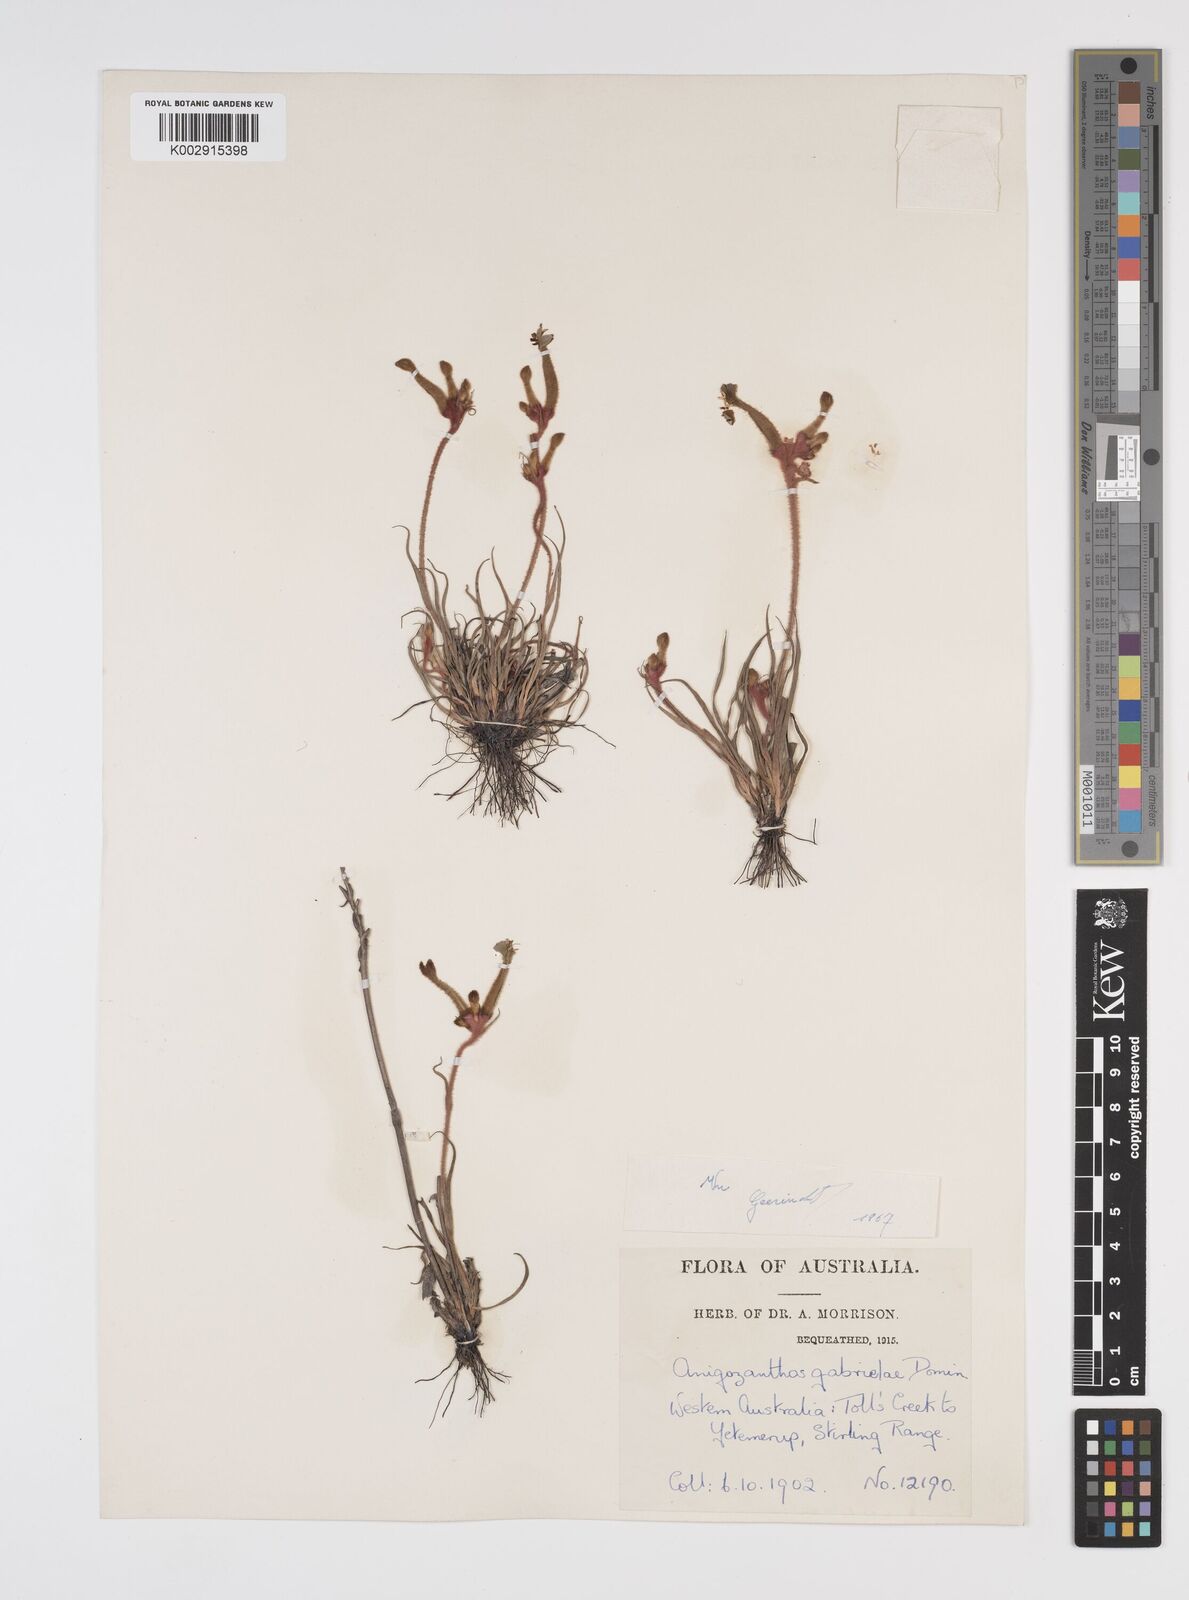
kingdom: Plantae
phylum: Tracheophyta
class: Liliopsida
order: Commelinales
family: Haemodoraceae
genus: Anigozanthos
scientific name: Anigozanthos gabrielae
